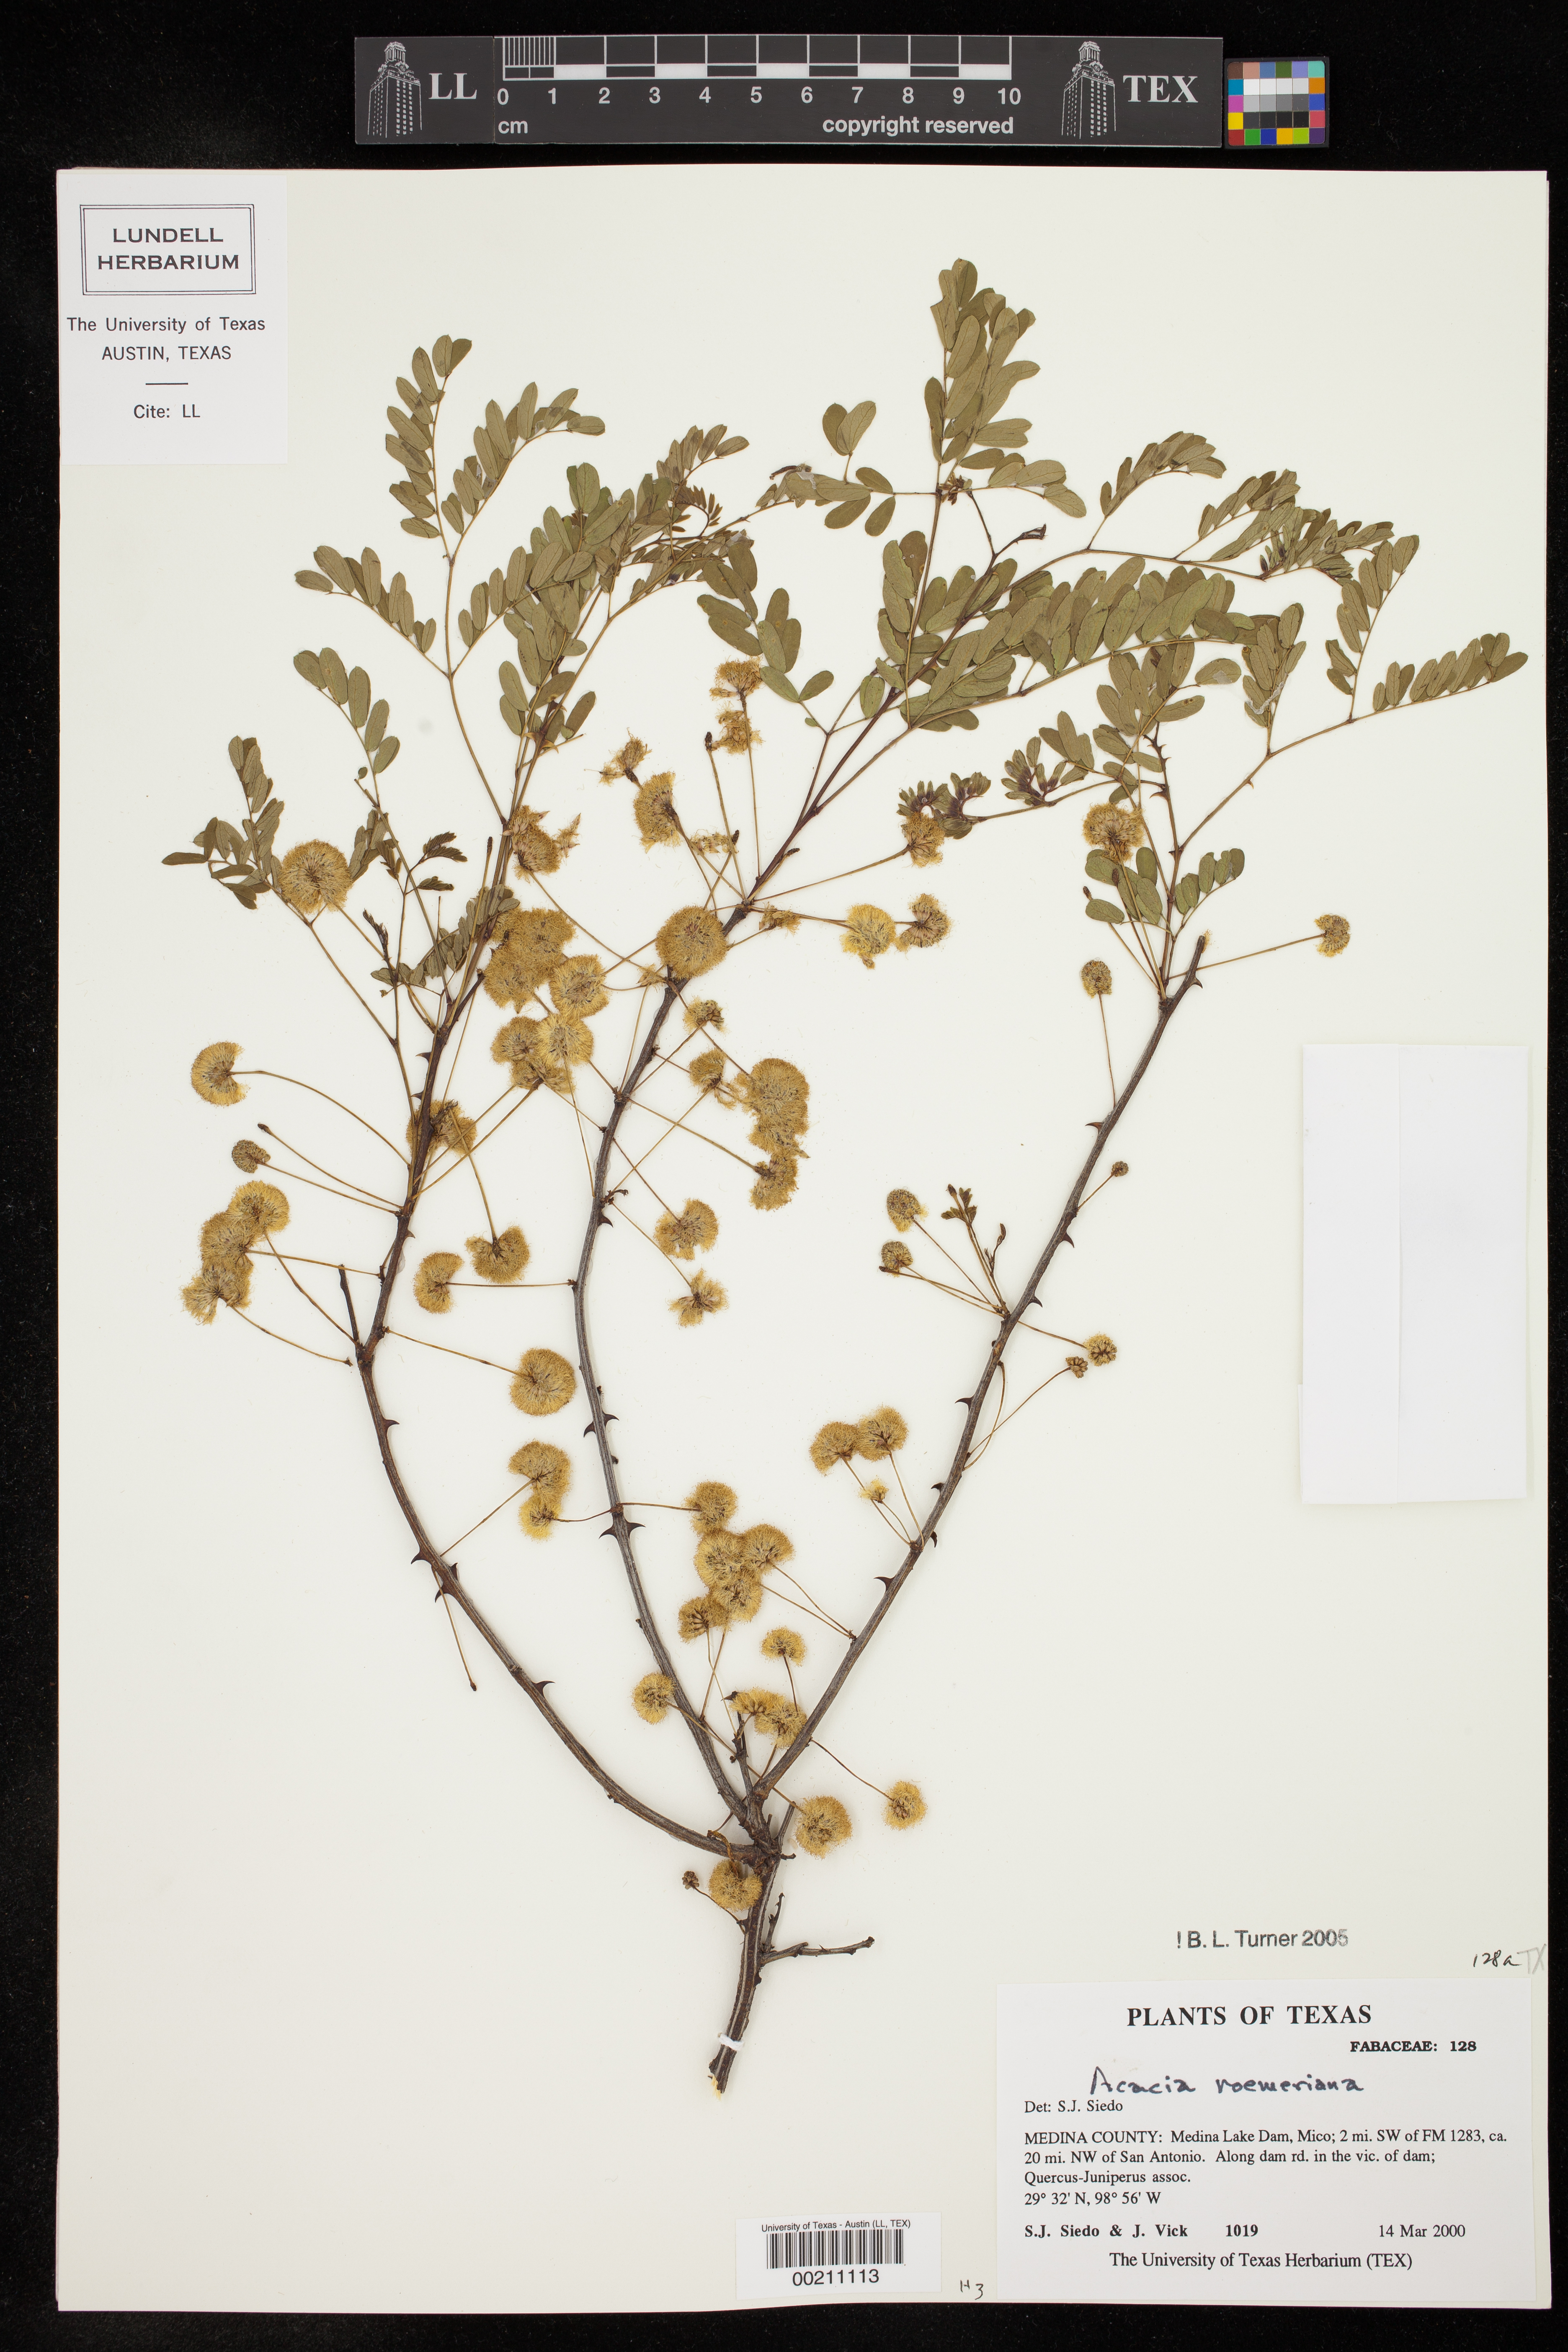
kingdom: Plantae
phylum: Tracheophyta
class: Magnoliopsida
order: Fabales
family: Fabaceae
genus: Senegalia
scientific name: Senegalia roemeriana
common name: Roemer's acacia
